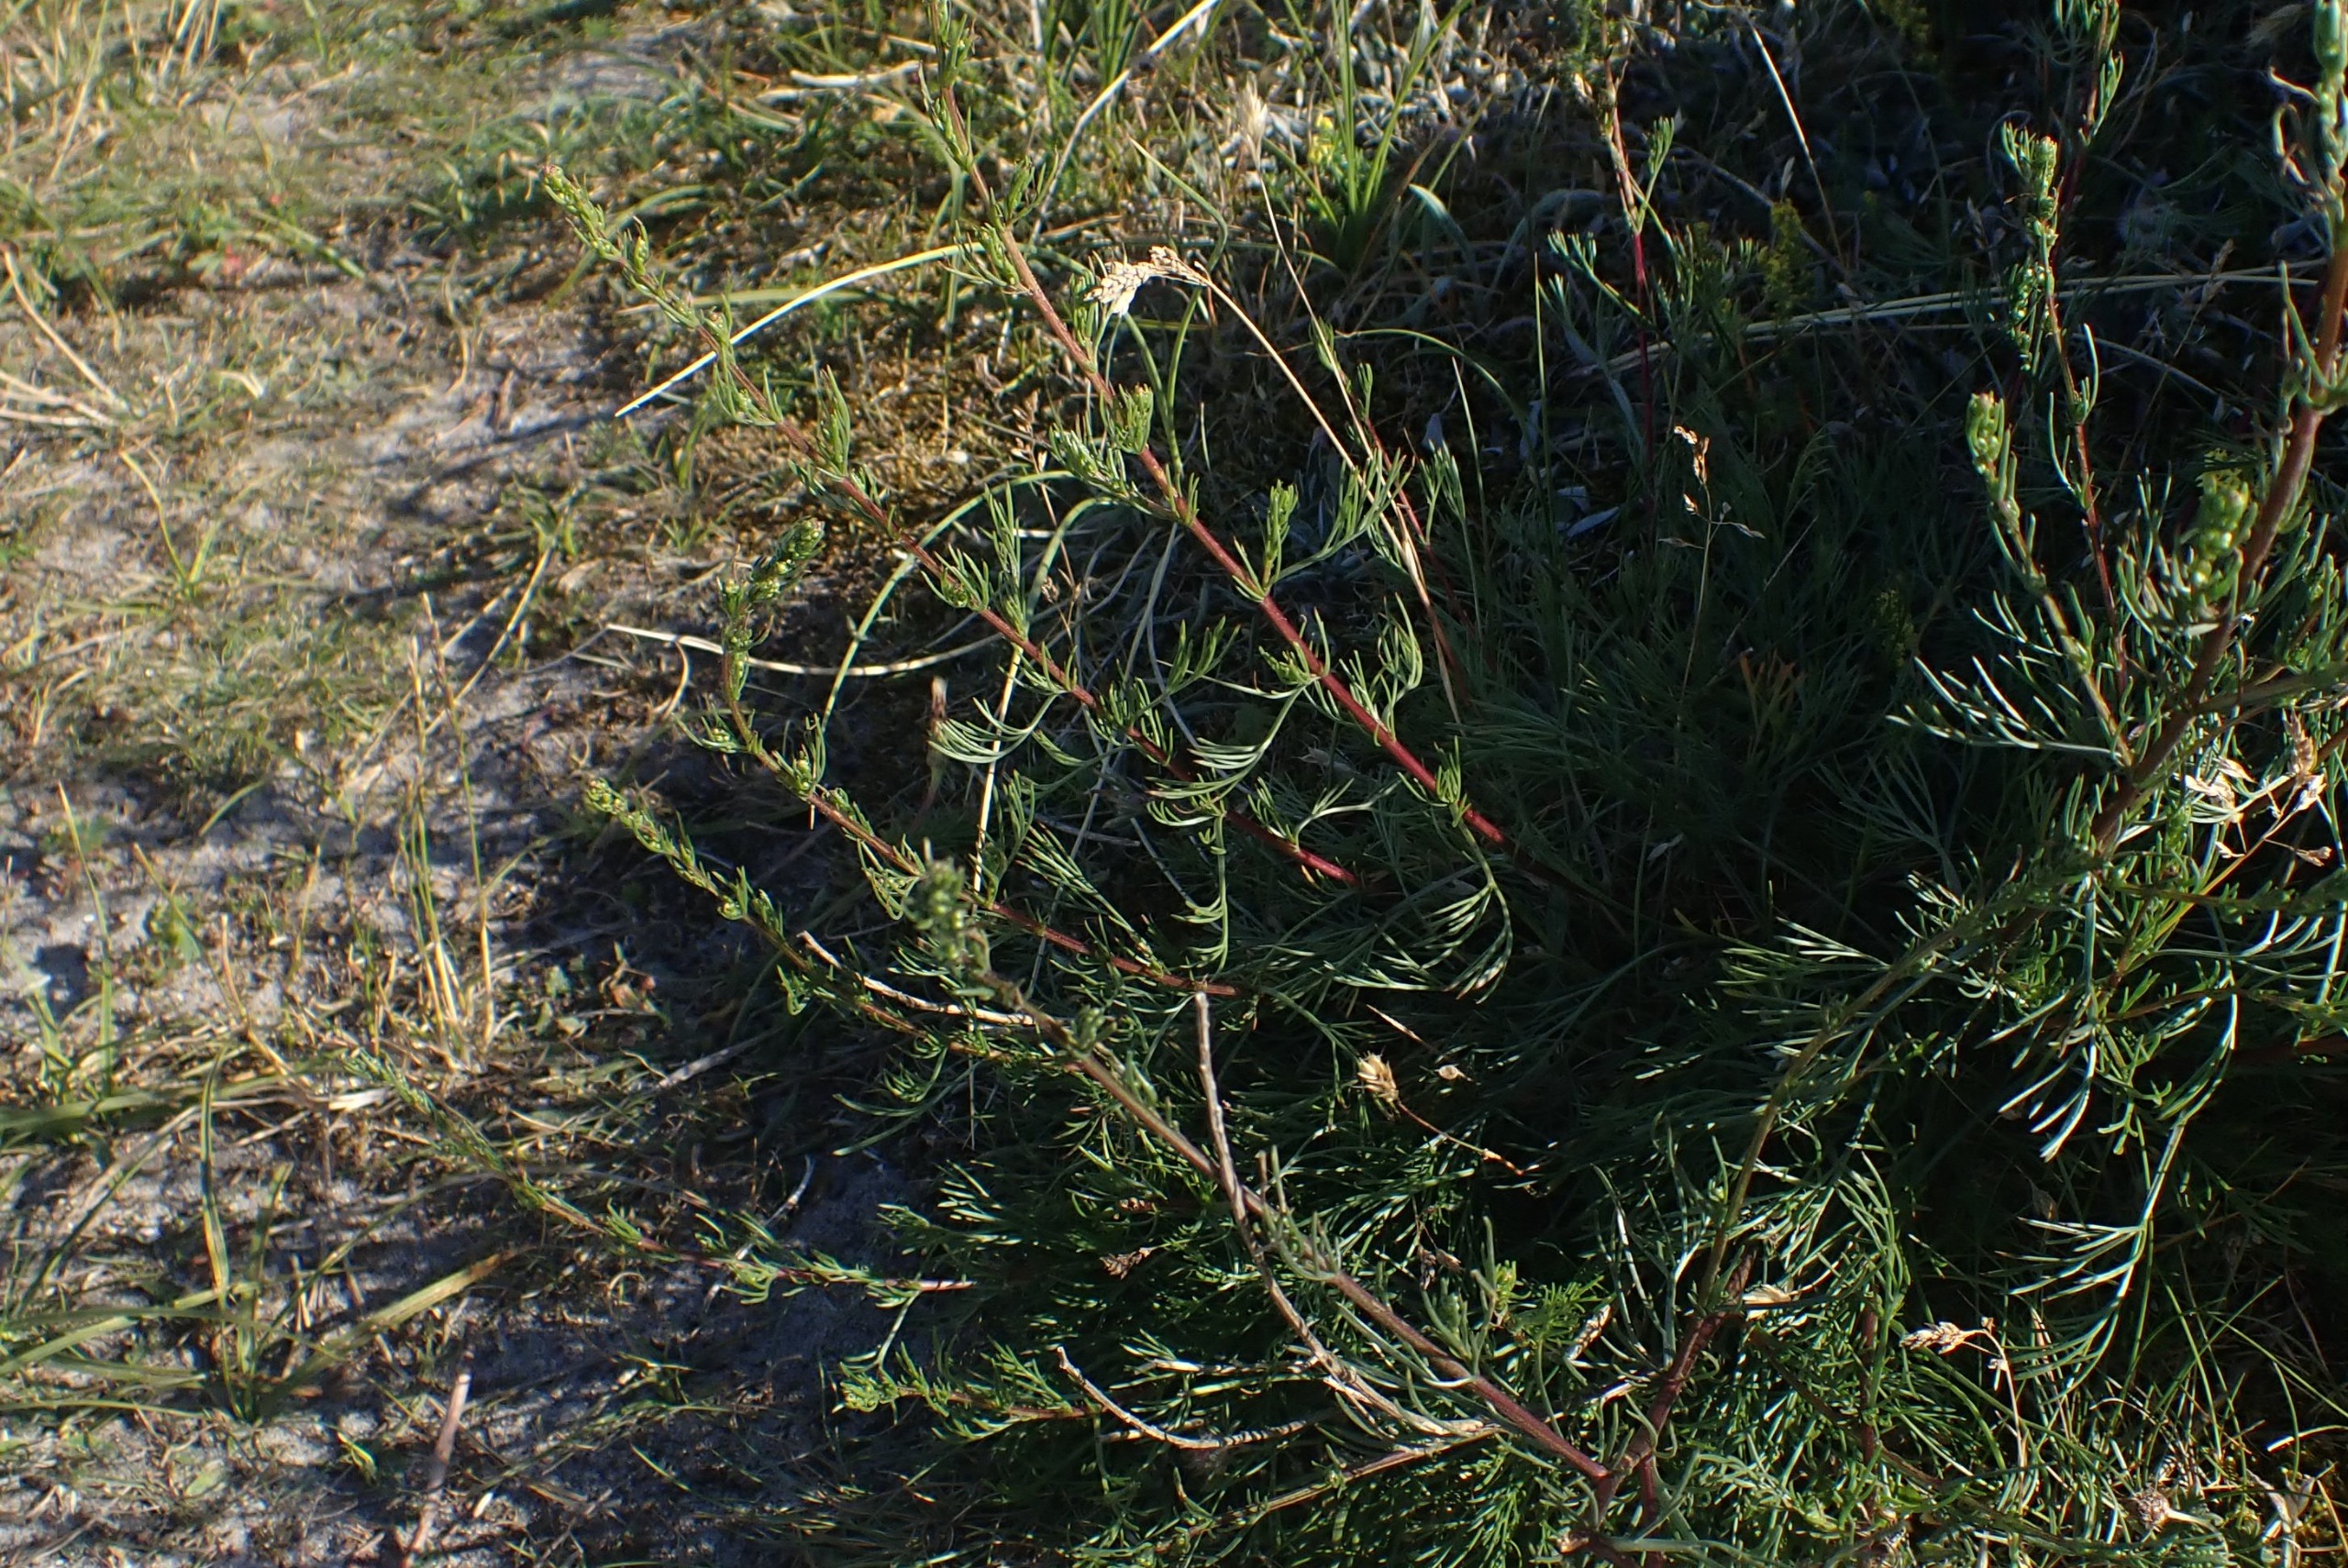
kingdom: Plantae
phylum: Tracheophyta
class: Magnoliopsida
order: Asterales
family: Asteraceae
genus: Artemisia
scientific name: Artemisia campestris
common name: Mark-bynke
